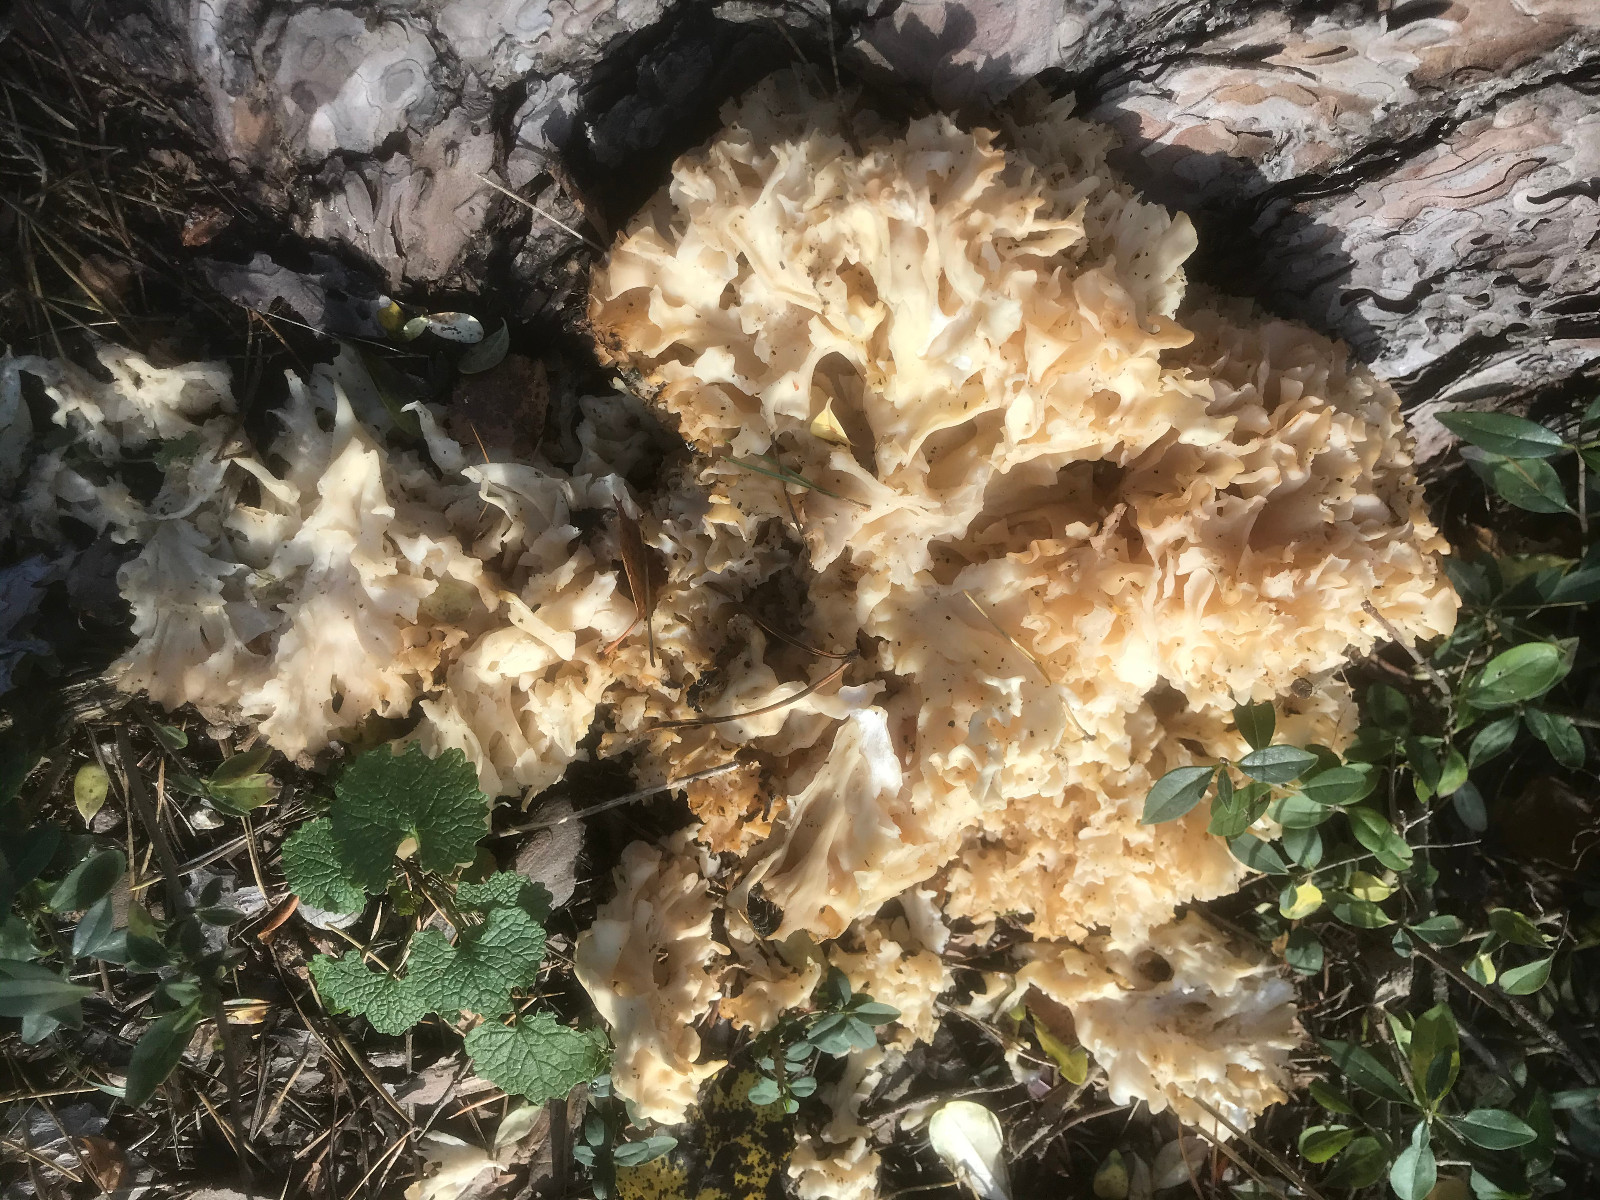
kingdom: Fungi
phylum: Basidiomycota
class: Agaricomycetes
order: Polyporales
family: Sparassidaceae
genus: Sparassis
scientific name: Sparassis crispa
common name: kruset blomkålssvamp
